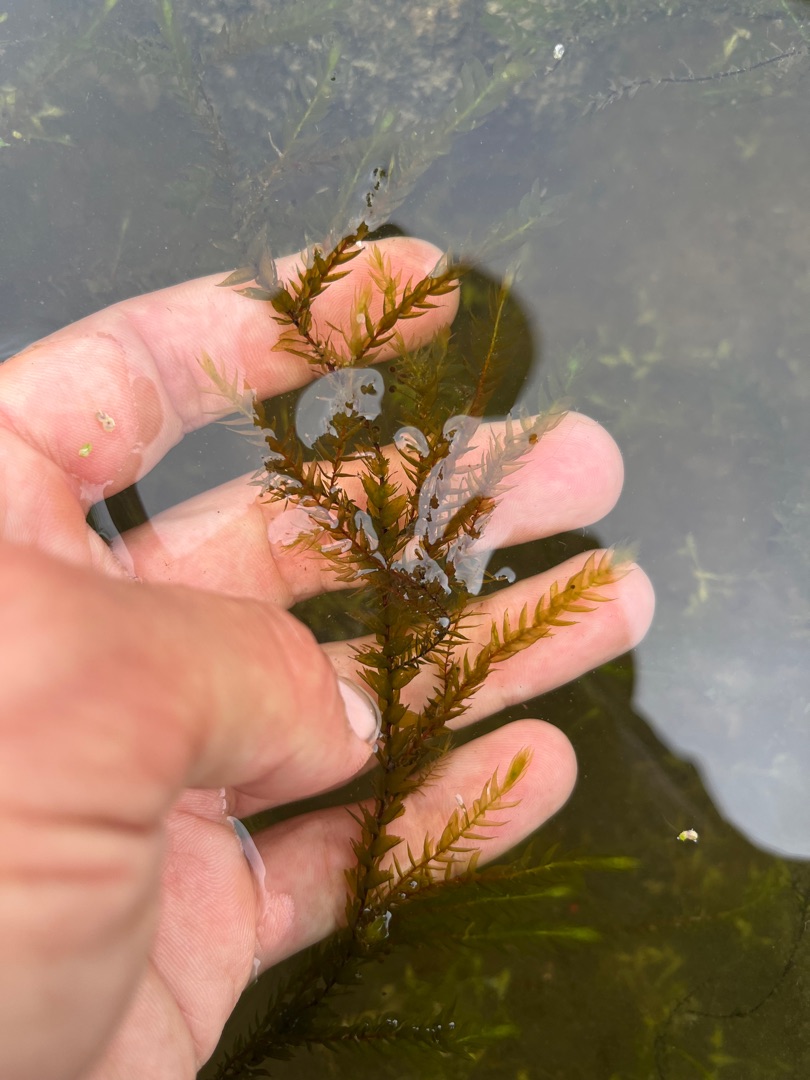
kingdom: Plantae
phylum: Bryophyta
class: Bryopsida
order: Hypnales
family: Fontinalaceae
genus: Fontinalis
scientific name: Fontinalis antipyretica
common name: Stor kildemos
